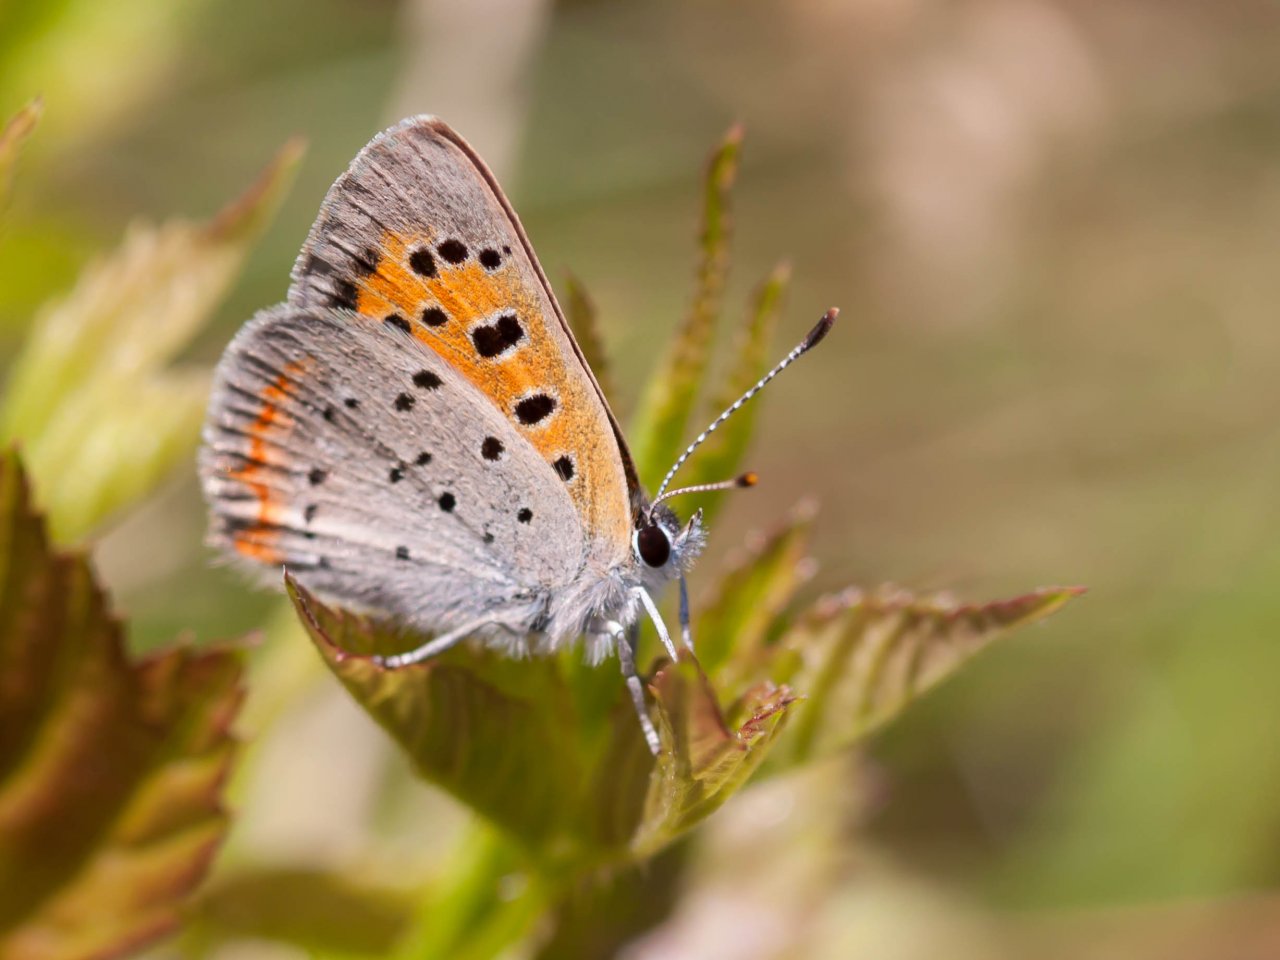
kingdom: Animalia
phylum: Arthropoda
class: Insecta
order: Lepidoptera
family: Lycaenidae
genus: Lycaena
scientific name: Lycaena phlaeas
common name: American Copper
